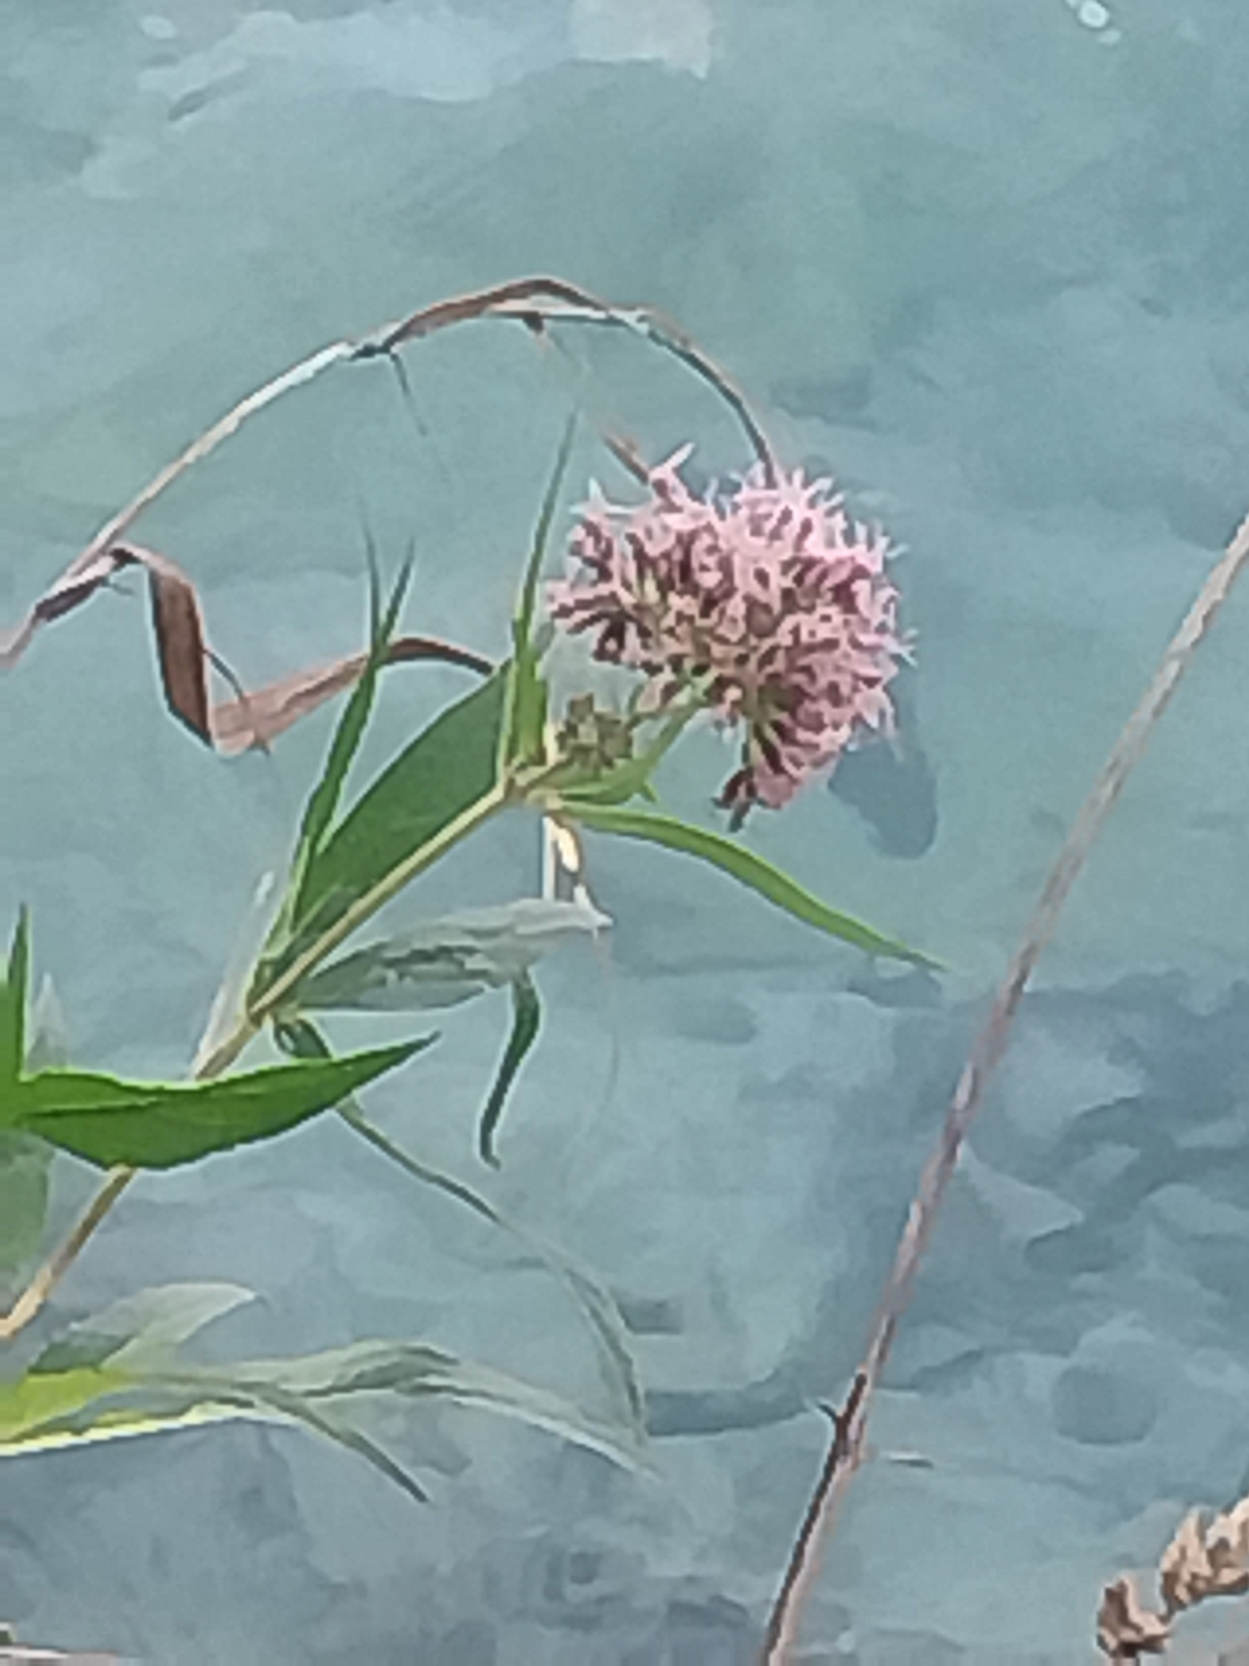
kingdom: Plantae
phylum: Tracheophyta
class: Magnoliopsida
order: Asterales
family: Asteraceae
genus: Eupatorium
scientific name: Eupatorium cannabinum
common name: Hjortetrøst
